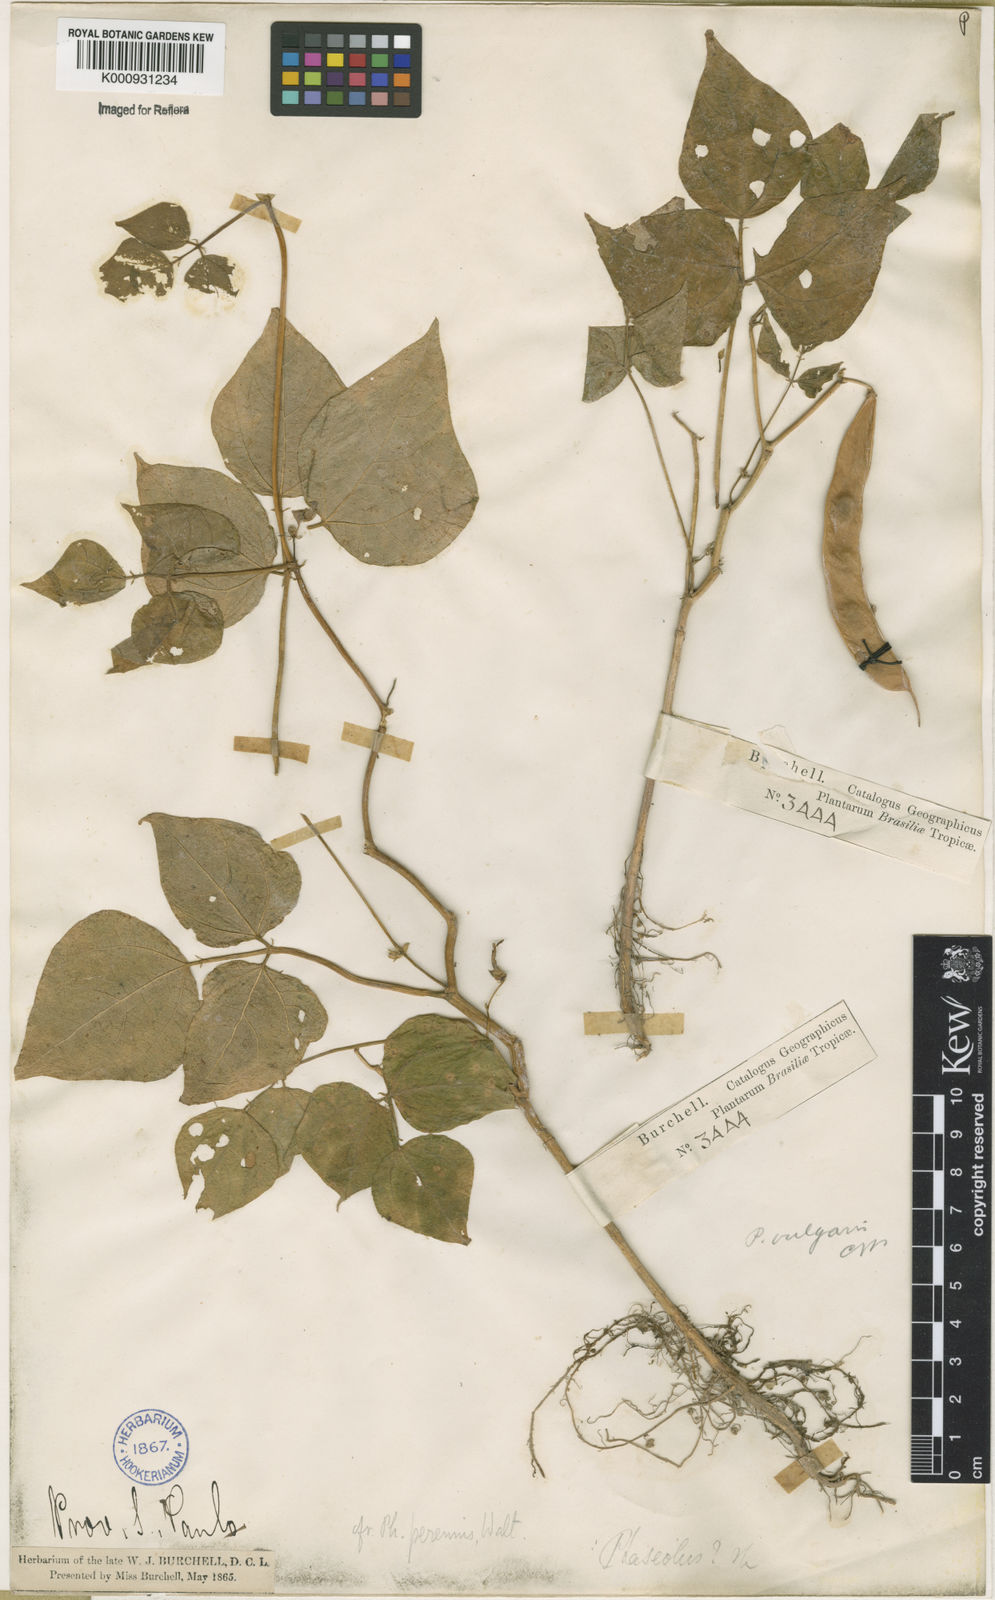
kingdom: Plantae
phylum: Tracheophyta
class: Magnoliopsida
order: Fabales
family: Fabaceae
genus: Phaseolus
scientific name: Phaseolus lunatus
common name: Sieva bean
